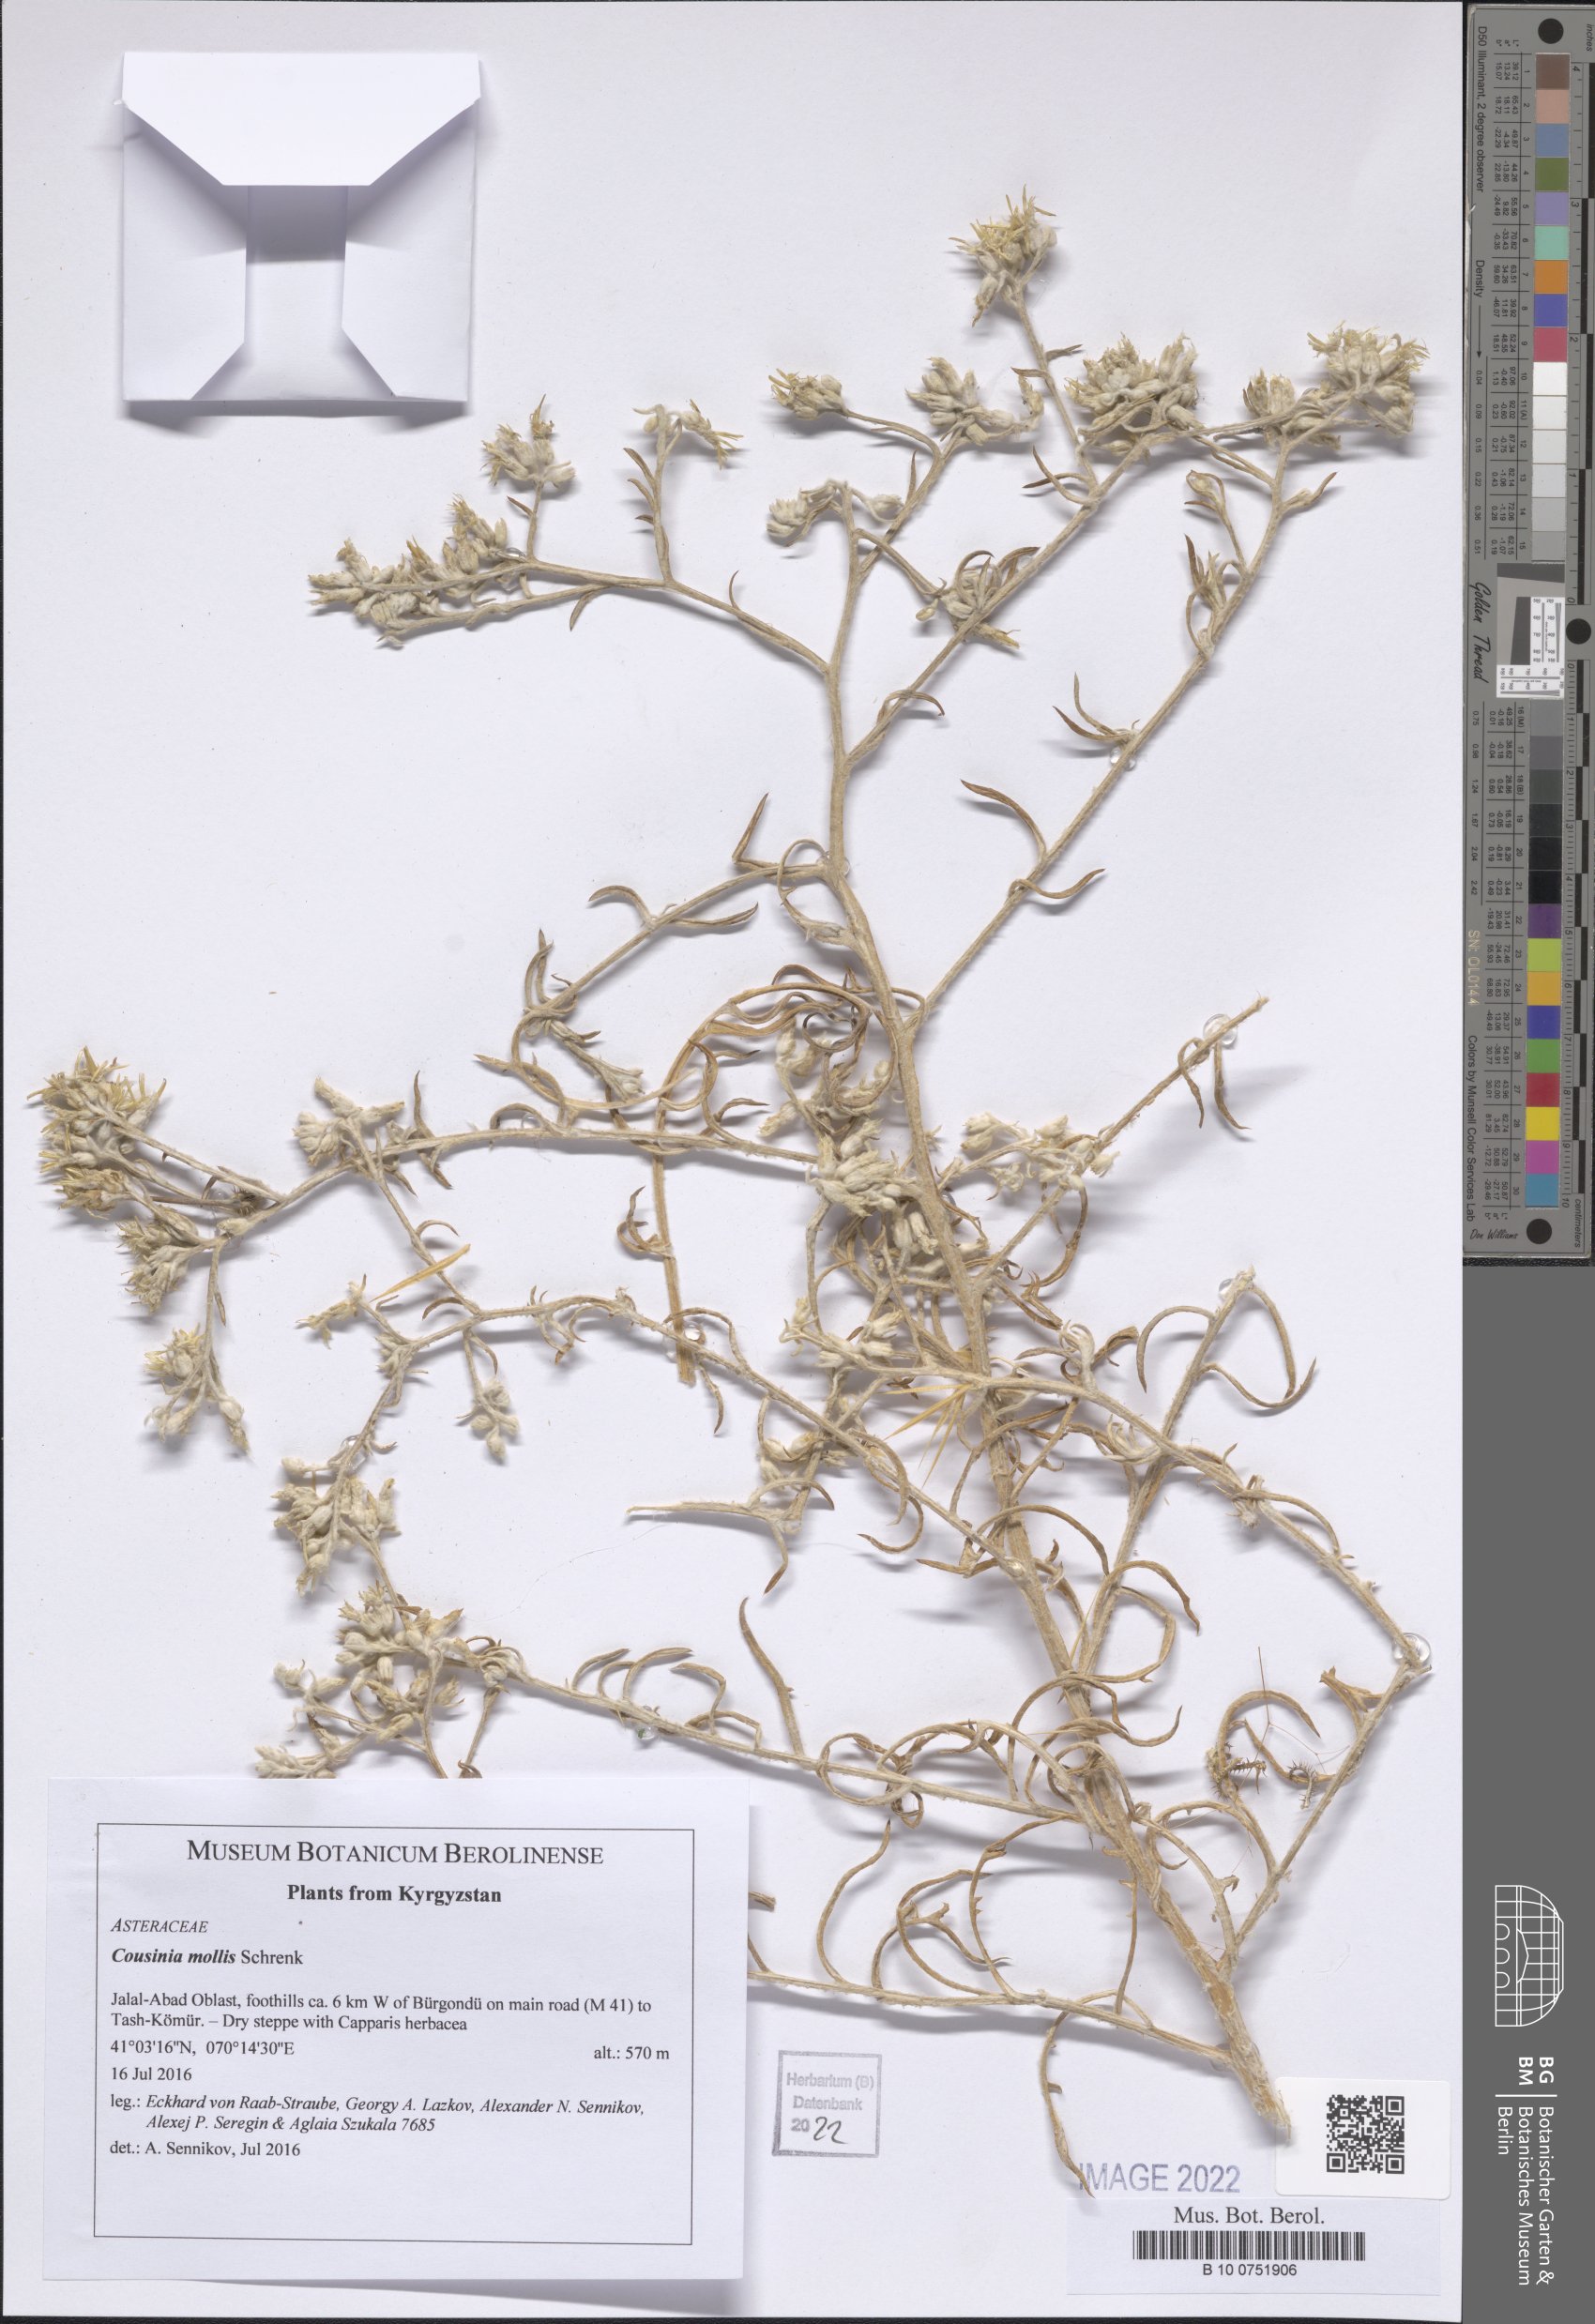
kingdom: Plantae
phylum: Tracheophyta
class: Magnoliopsida
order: Asterales
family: Asteraceae
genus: Cousinia
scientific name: Cousinia mollis
